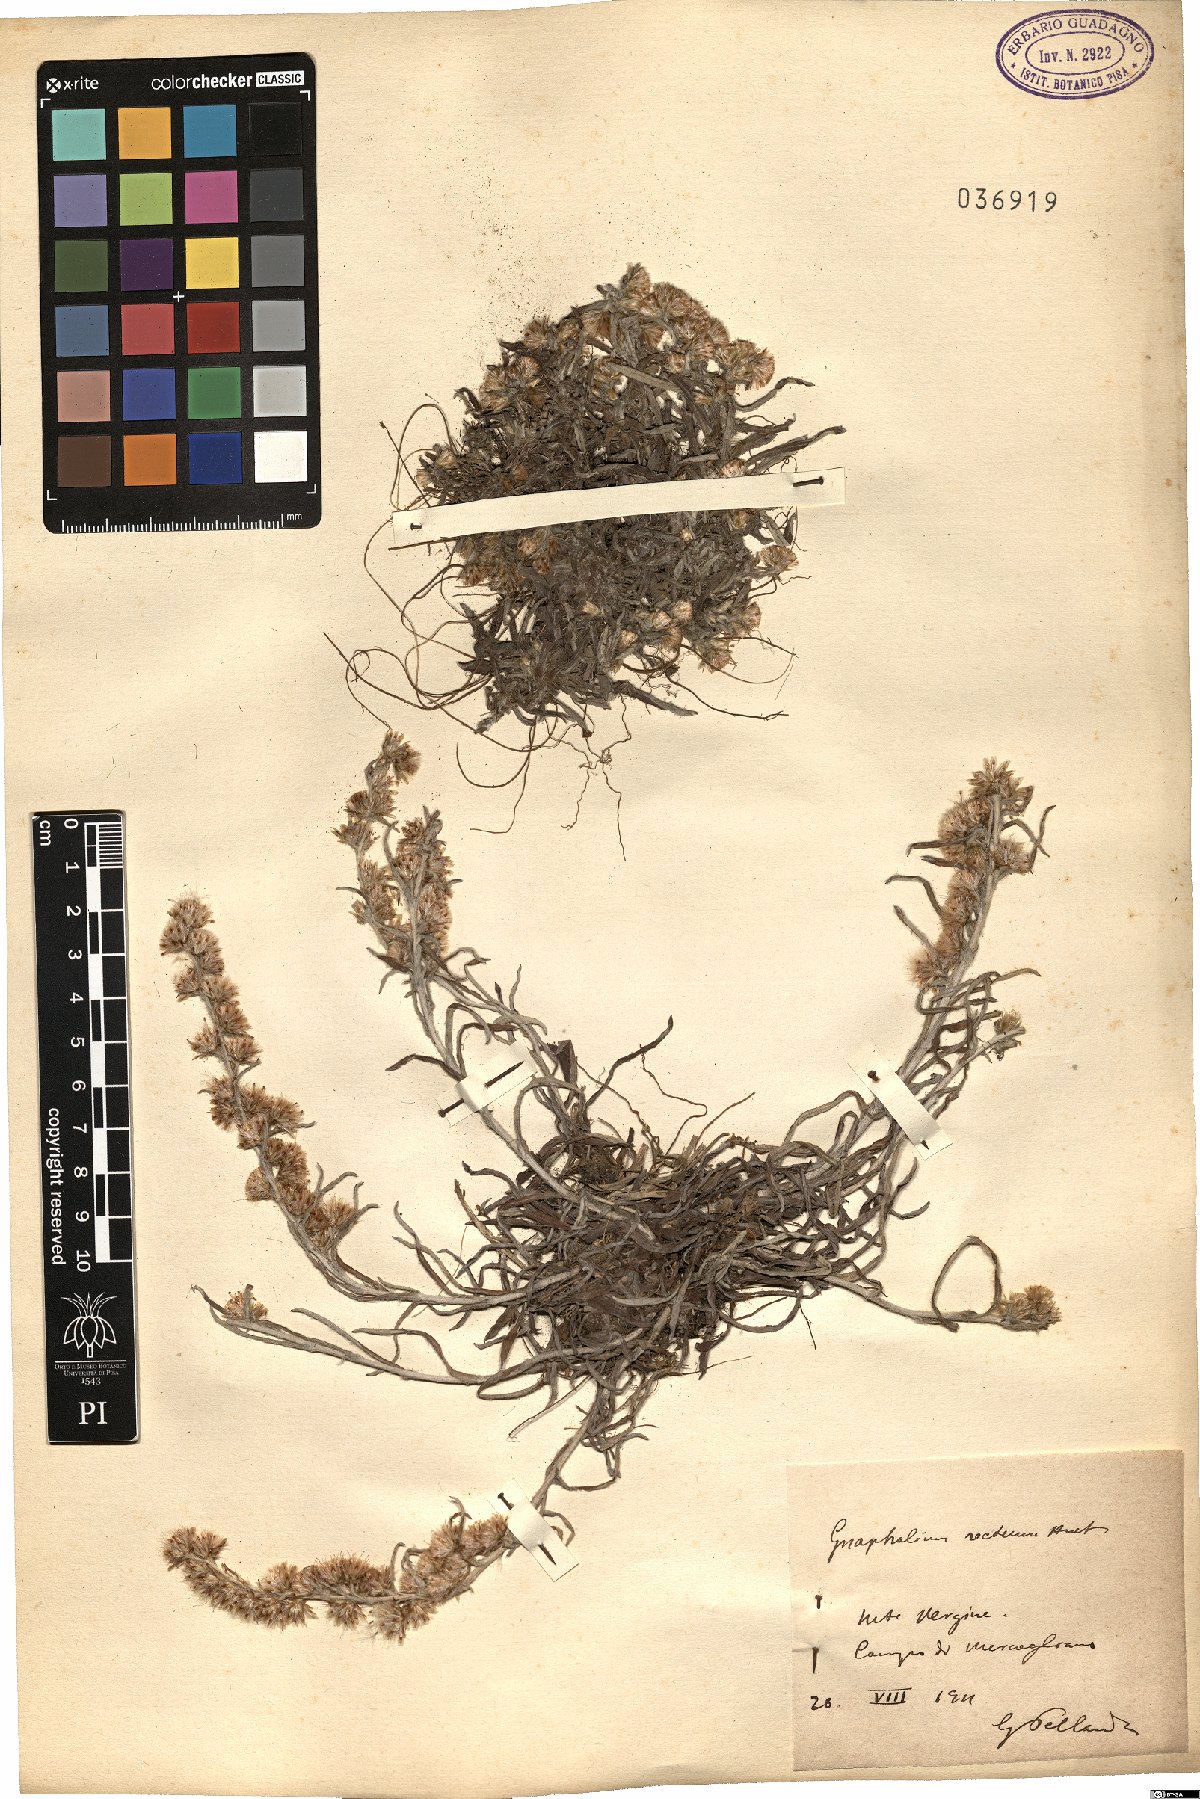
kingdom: Plantae
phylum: Tracheophyta
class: Magnoliopsida
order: Asterales
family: Asteraceae
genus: Omalotheca
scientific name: Omalotheca sylvatica
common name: Heath cudweed
